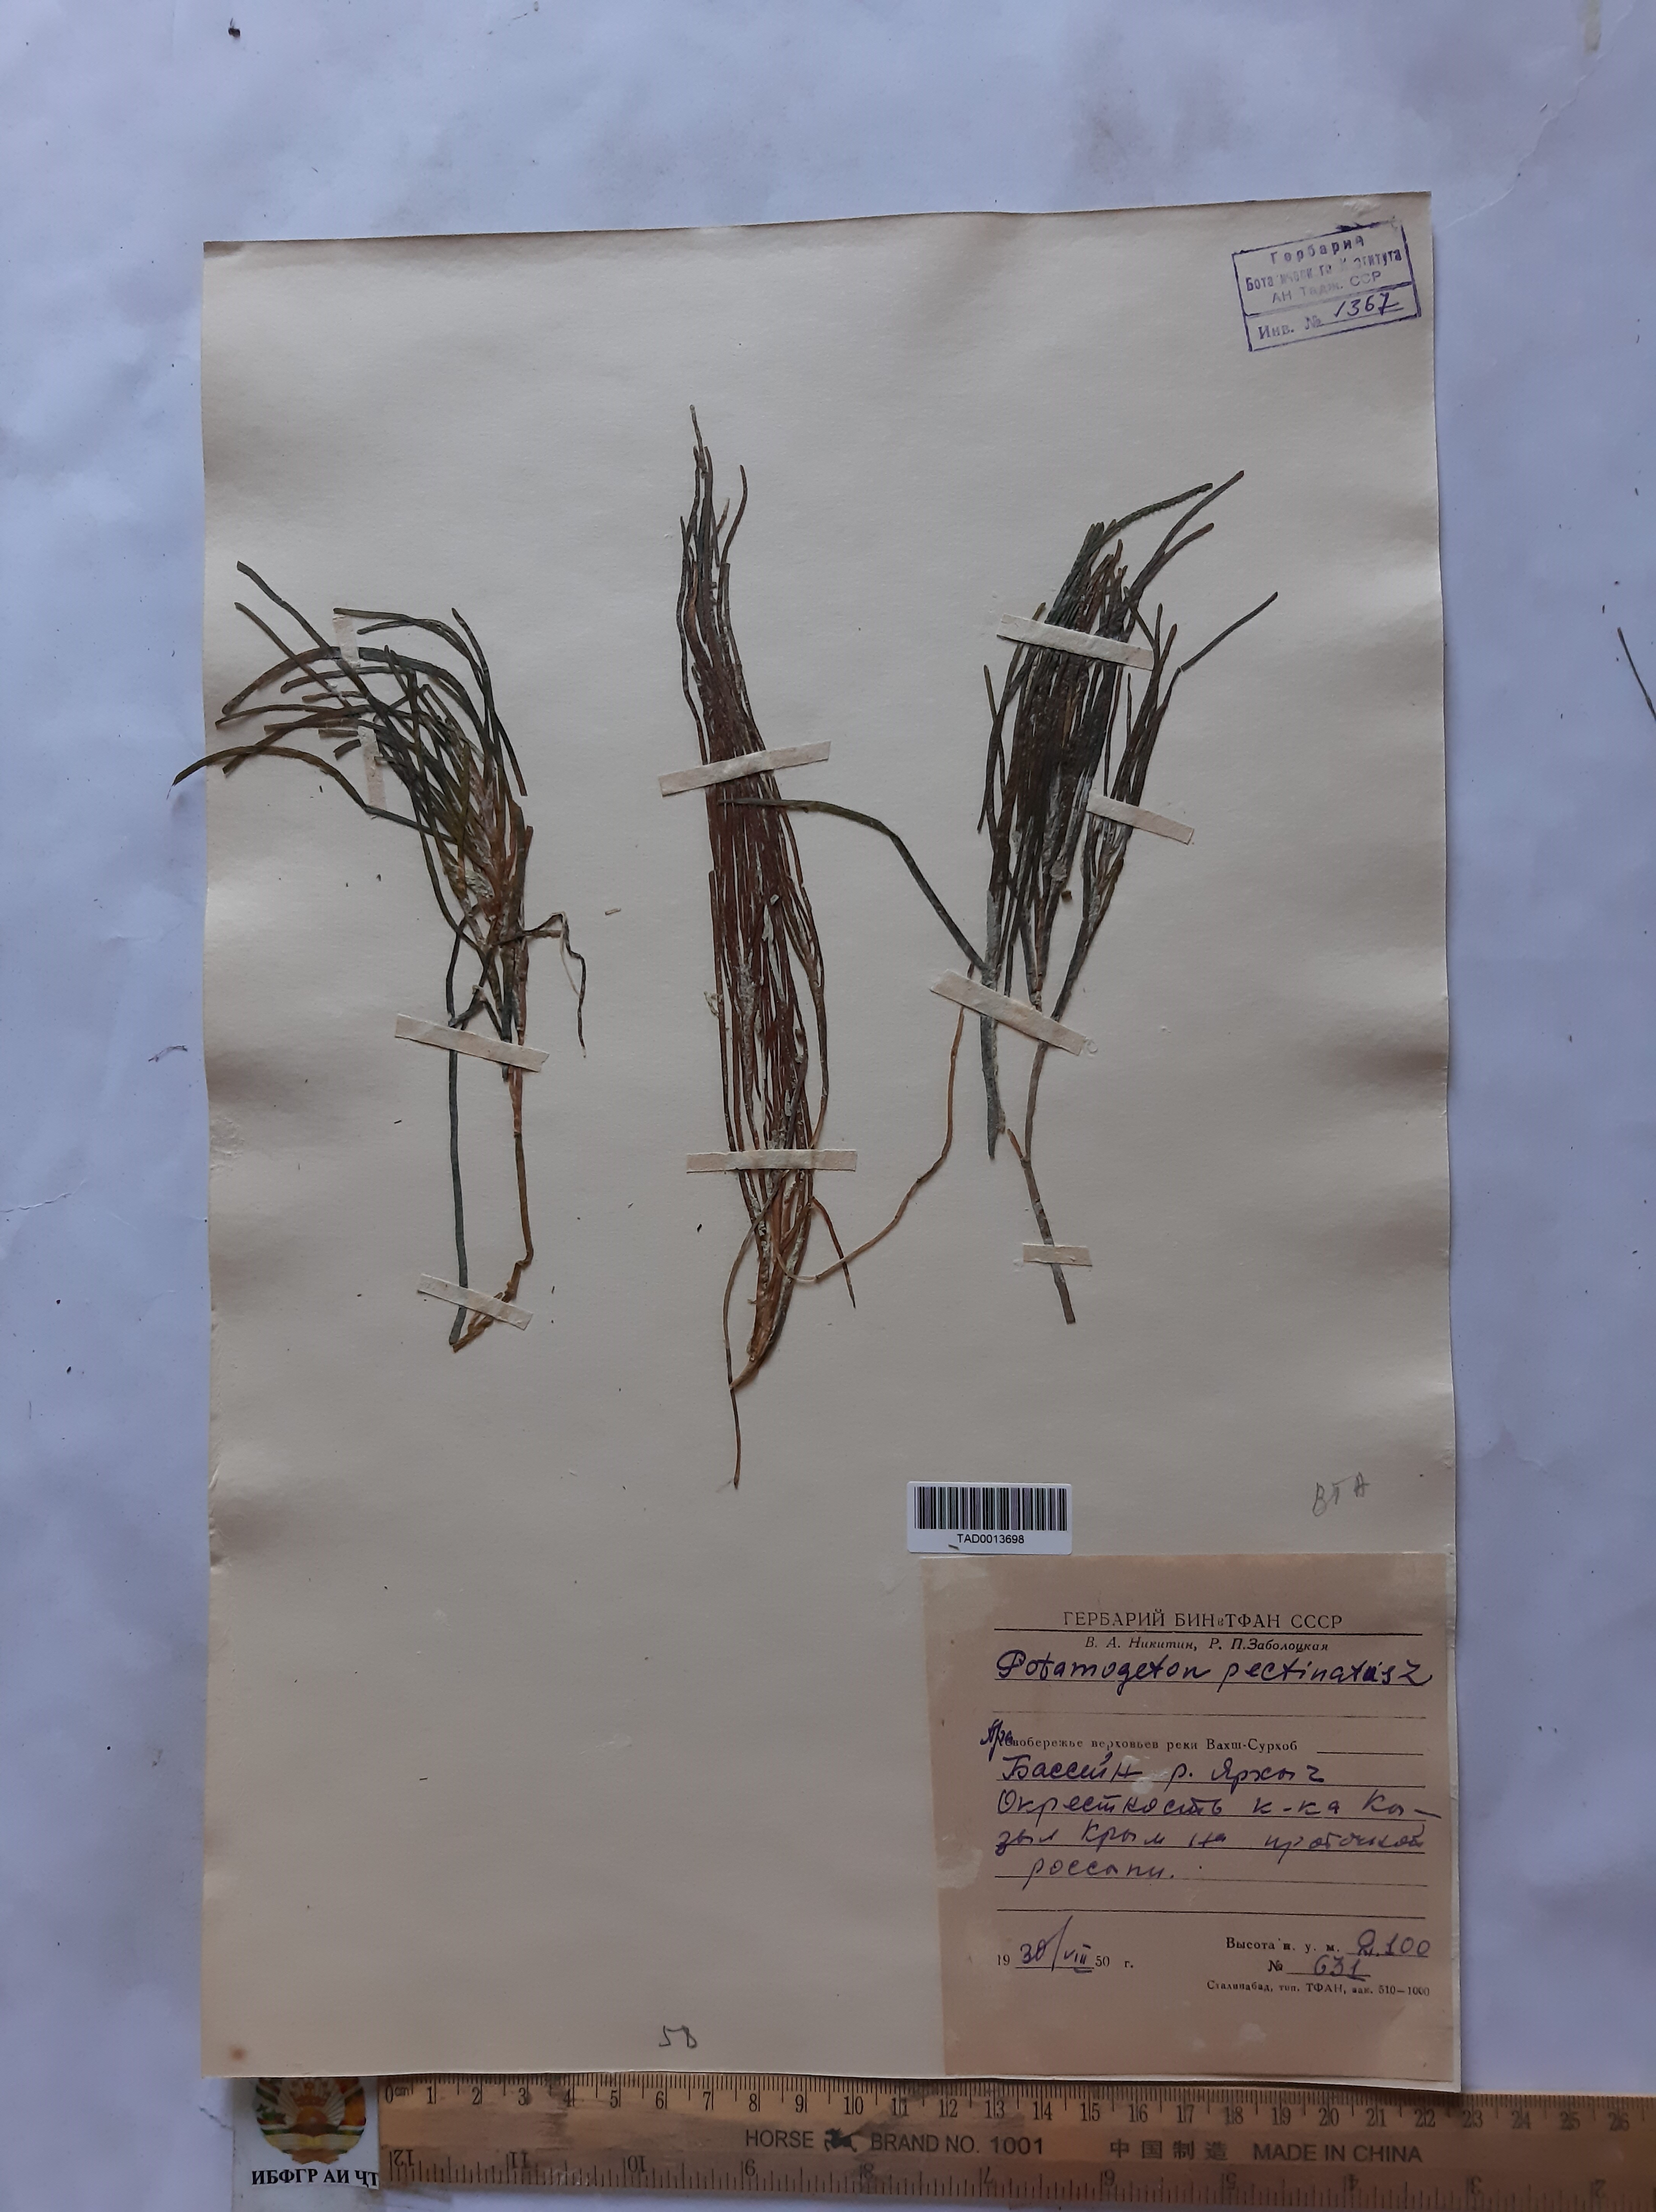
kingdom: Plantae
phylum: Tracheophyta
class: Liliopsida
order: Alismatales
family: Potamogetonaceae
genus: Stuckenia
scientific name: Stuckenia pectinata
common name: Sago pondweed
